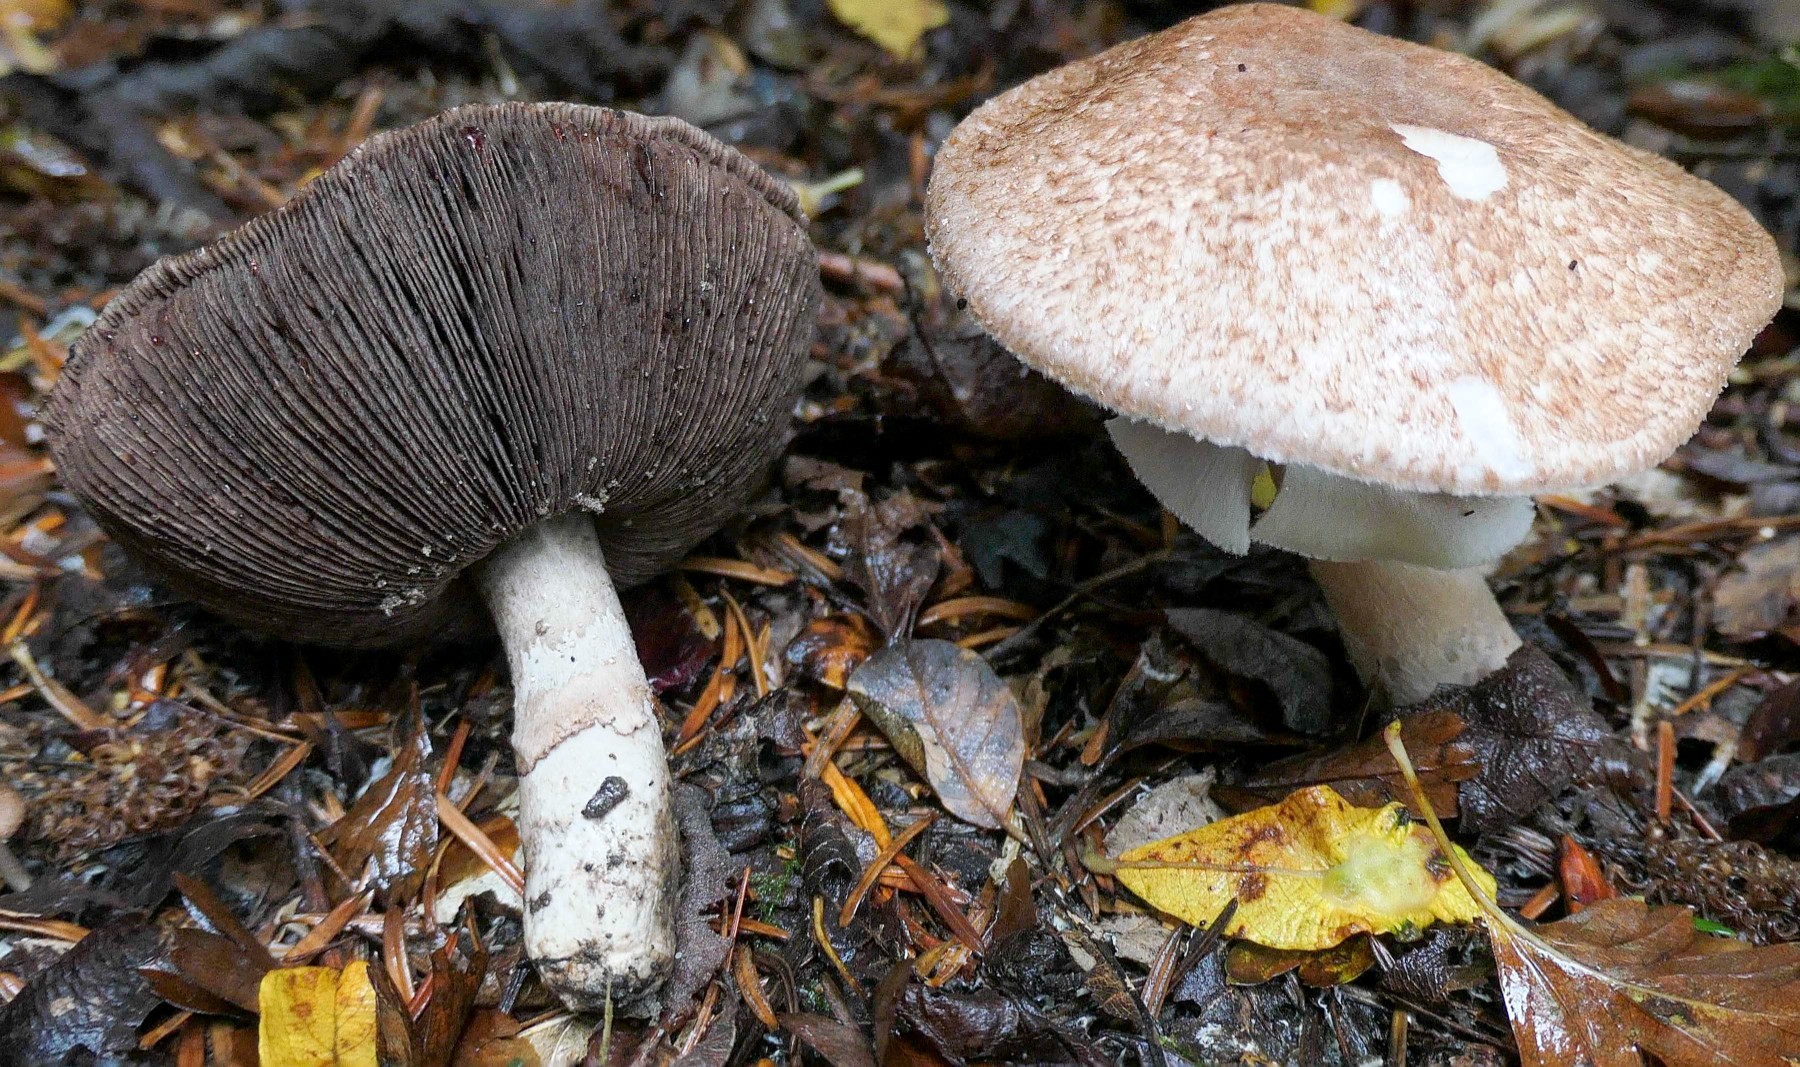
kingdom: Fungi
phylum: Basidiomycota
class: Agaricomycetes
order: Agaricales
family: Agaricaceae
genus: Agaricus
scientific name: Agaricus
